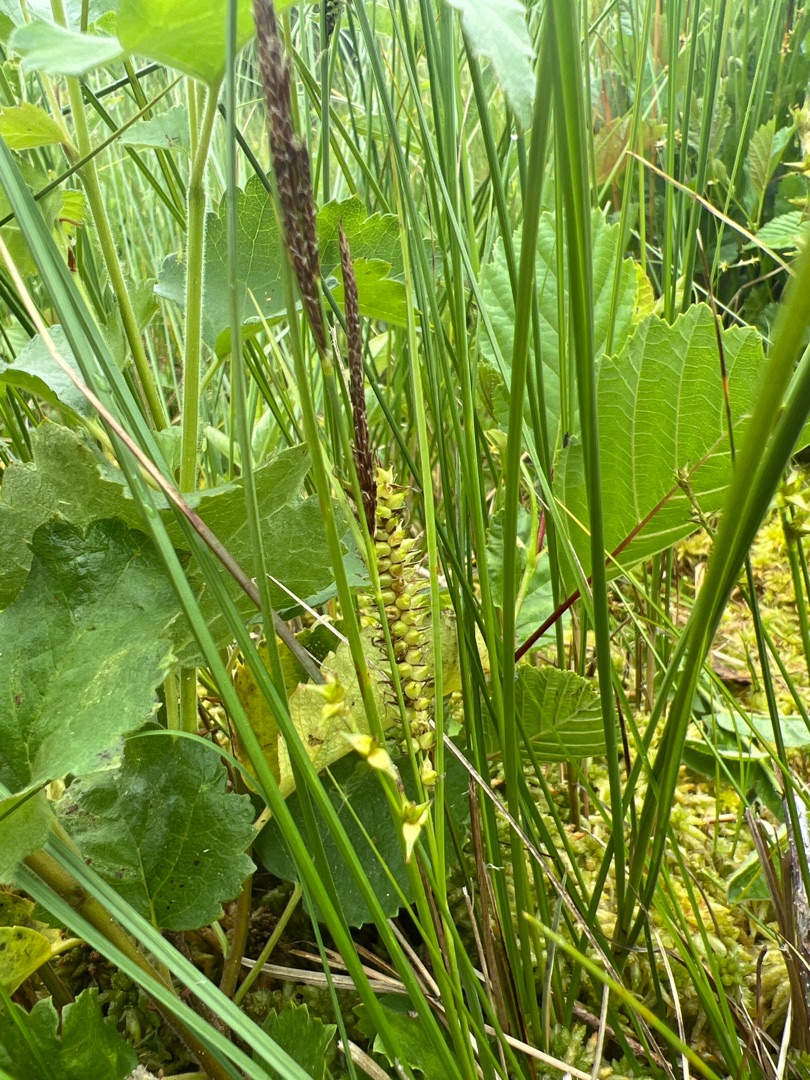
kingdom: Plantae
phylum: Tracheophyta
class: Liliopsida
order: Poales
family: Cyperaceae
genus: Carex
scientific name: Carex rostrata
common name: Næb-star
